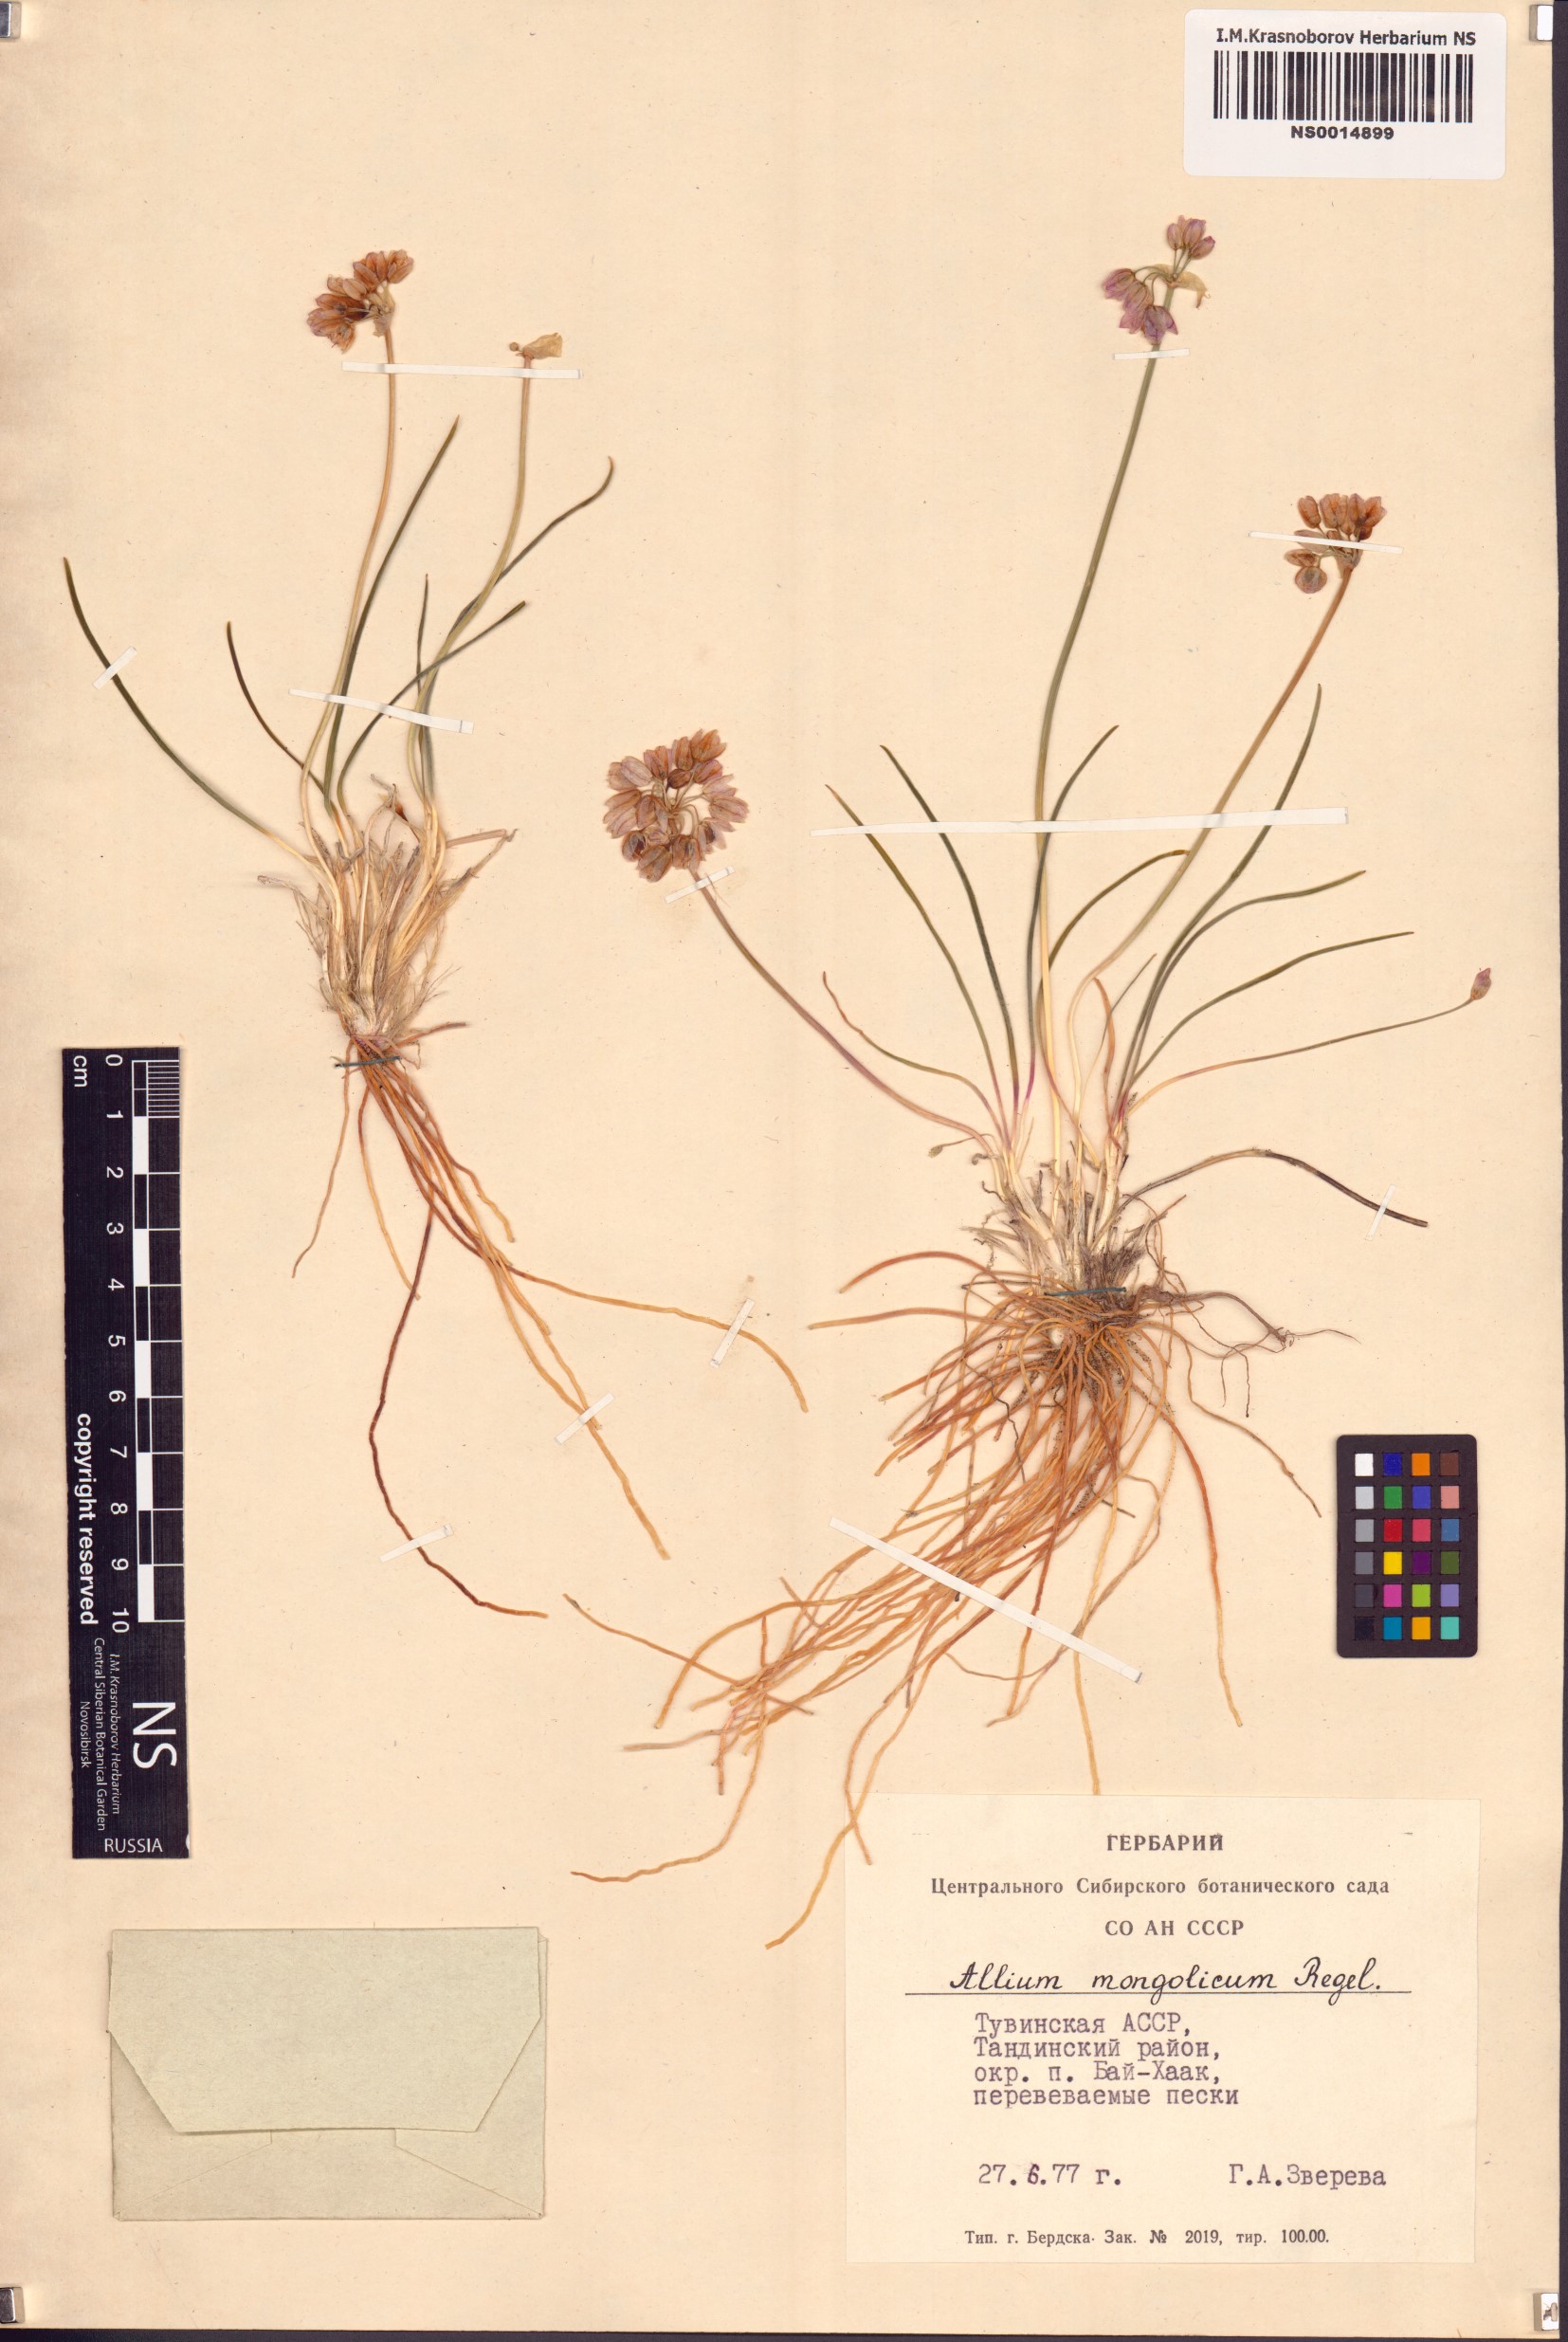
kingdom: Plantae
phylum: Tracheophyta
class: Liliopsida
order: Asparagales
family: Amaryllidaceae
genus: Allium
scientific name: Allium mongolicum
